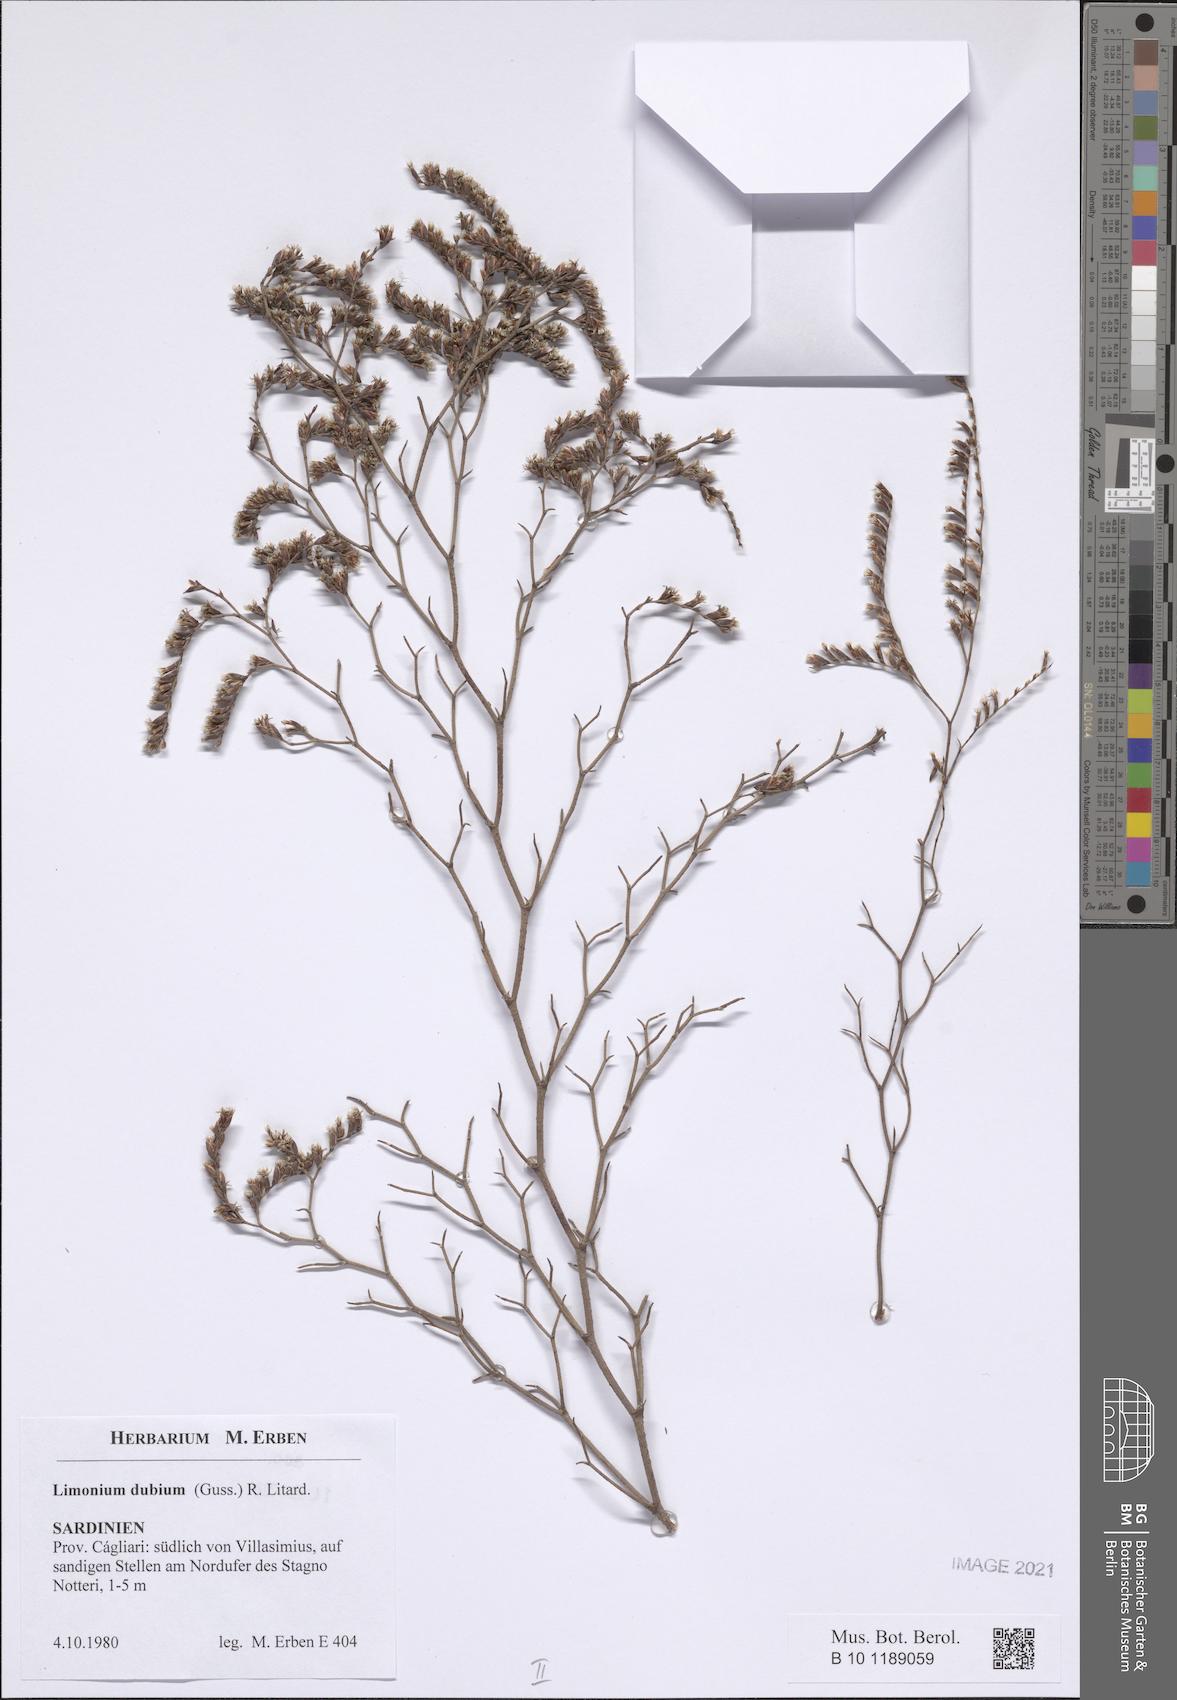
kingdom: Plantae
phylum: Tracheophyta
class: Magnoliopsida
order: Caryophyllales
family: Plumbaginaceae
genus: Limonium
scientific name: Limonium dubium
